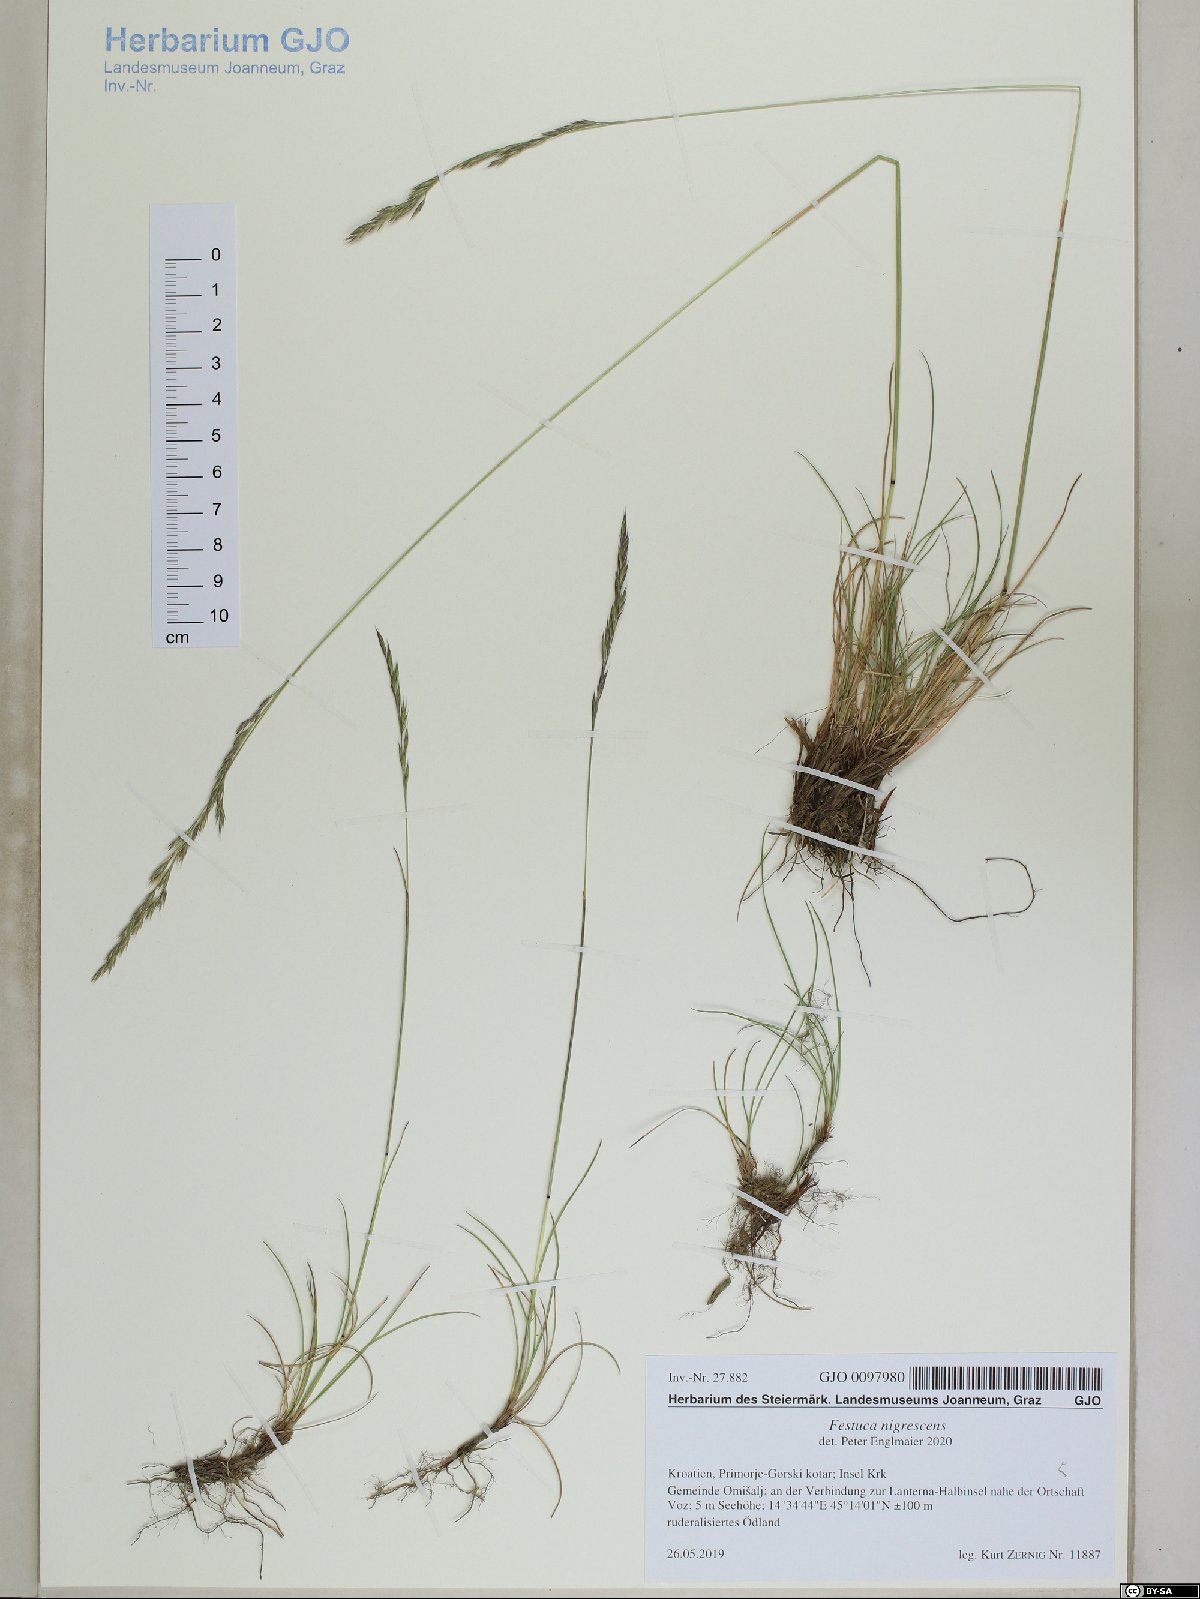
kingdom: Plantae
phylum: Tracheophyta
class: Liliopsida
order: Poales
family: Poaceae
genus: Festuca
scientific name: Festuca nigrescens
